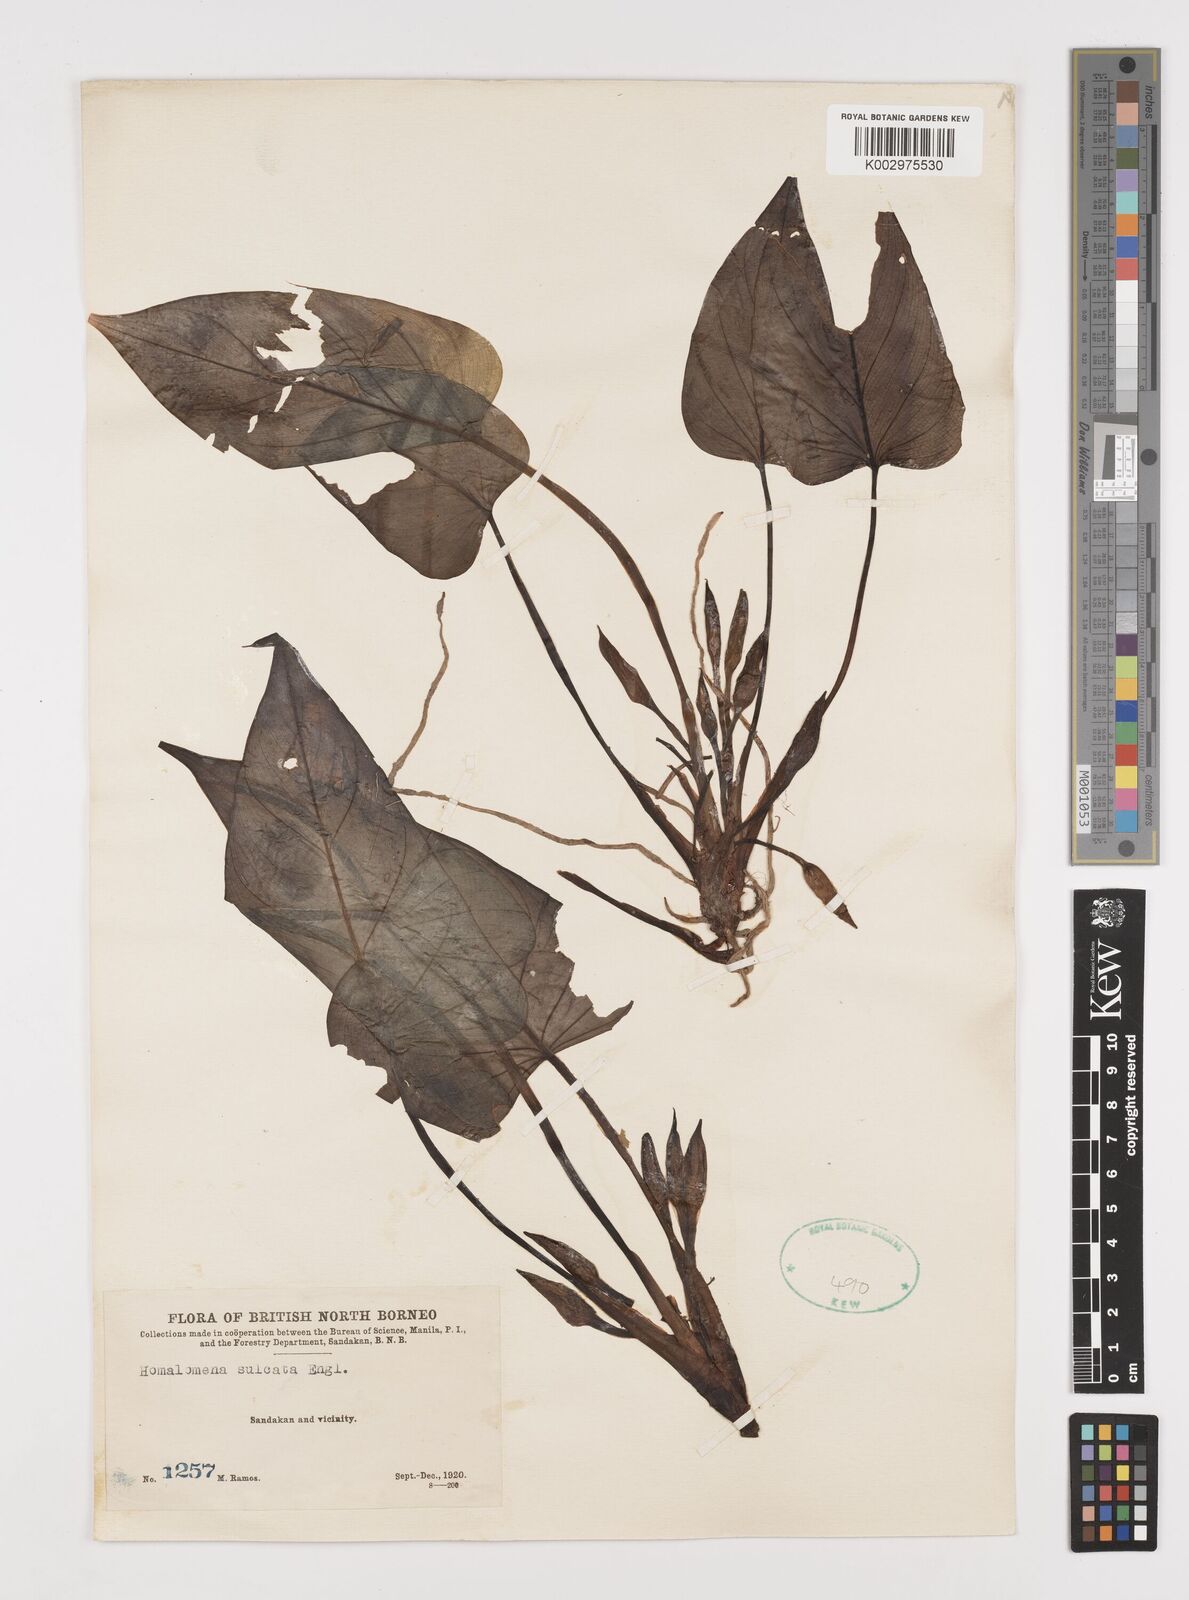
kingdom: Plantae
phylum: Tracheophyta
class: Liliopsida
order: Alismatales
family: Araceae
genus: Homalomena
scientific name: Homalomena griffithii
